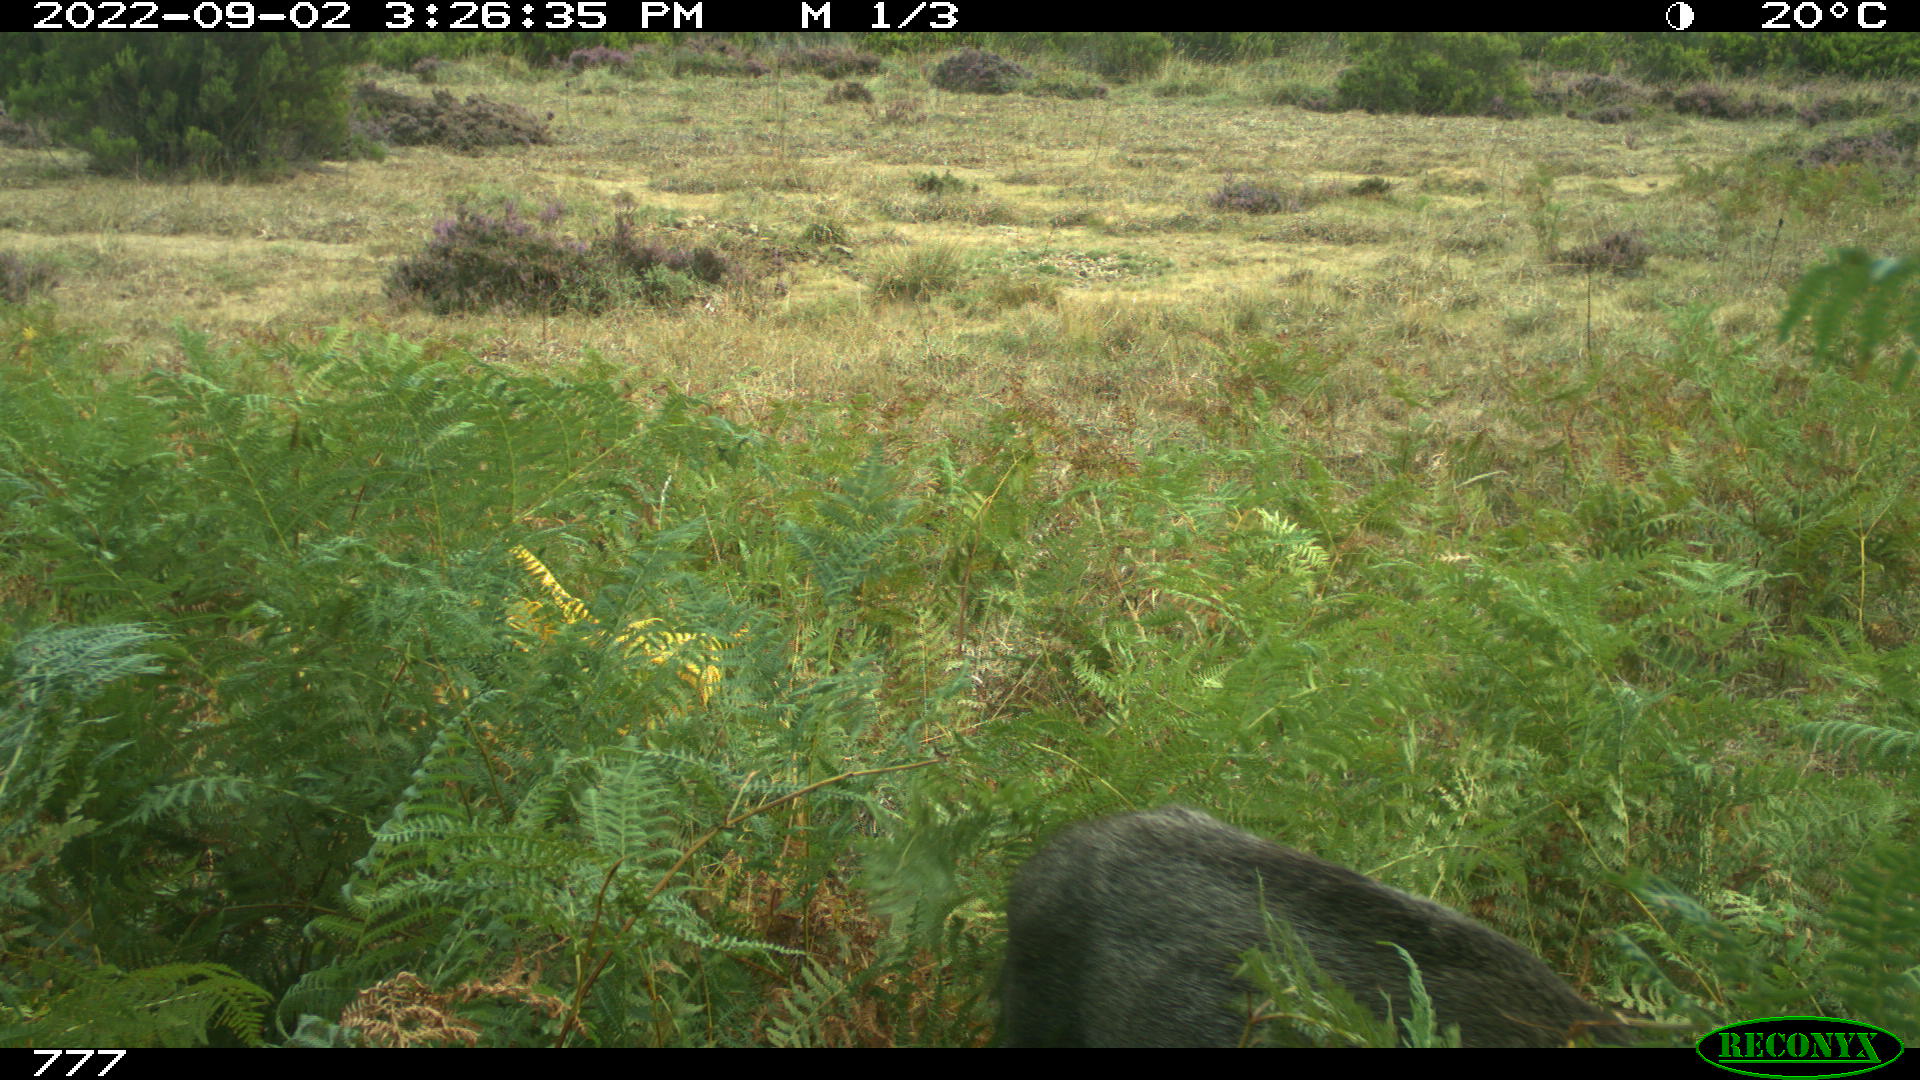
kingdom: Animalia
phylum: Chordata
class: Mammalia
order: Artiodactyla
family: Suidae
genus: Sus
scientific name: Sus scrofa
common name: Wild boar
